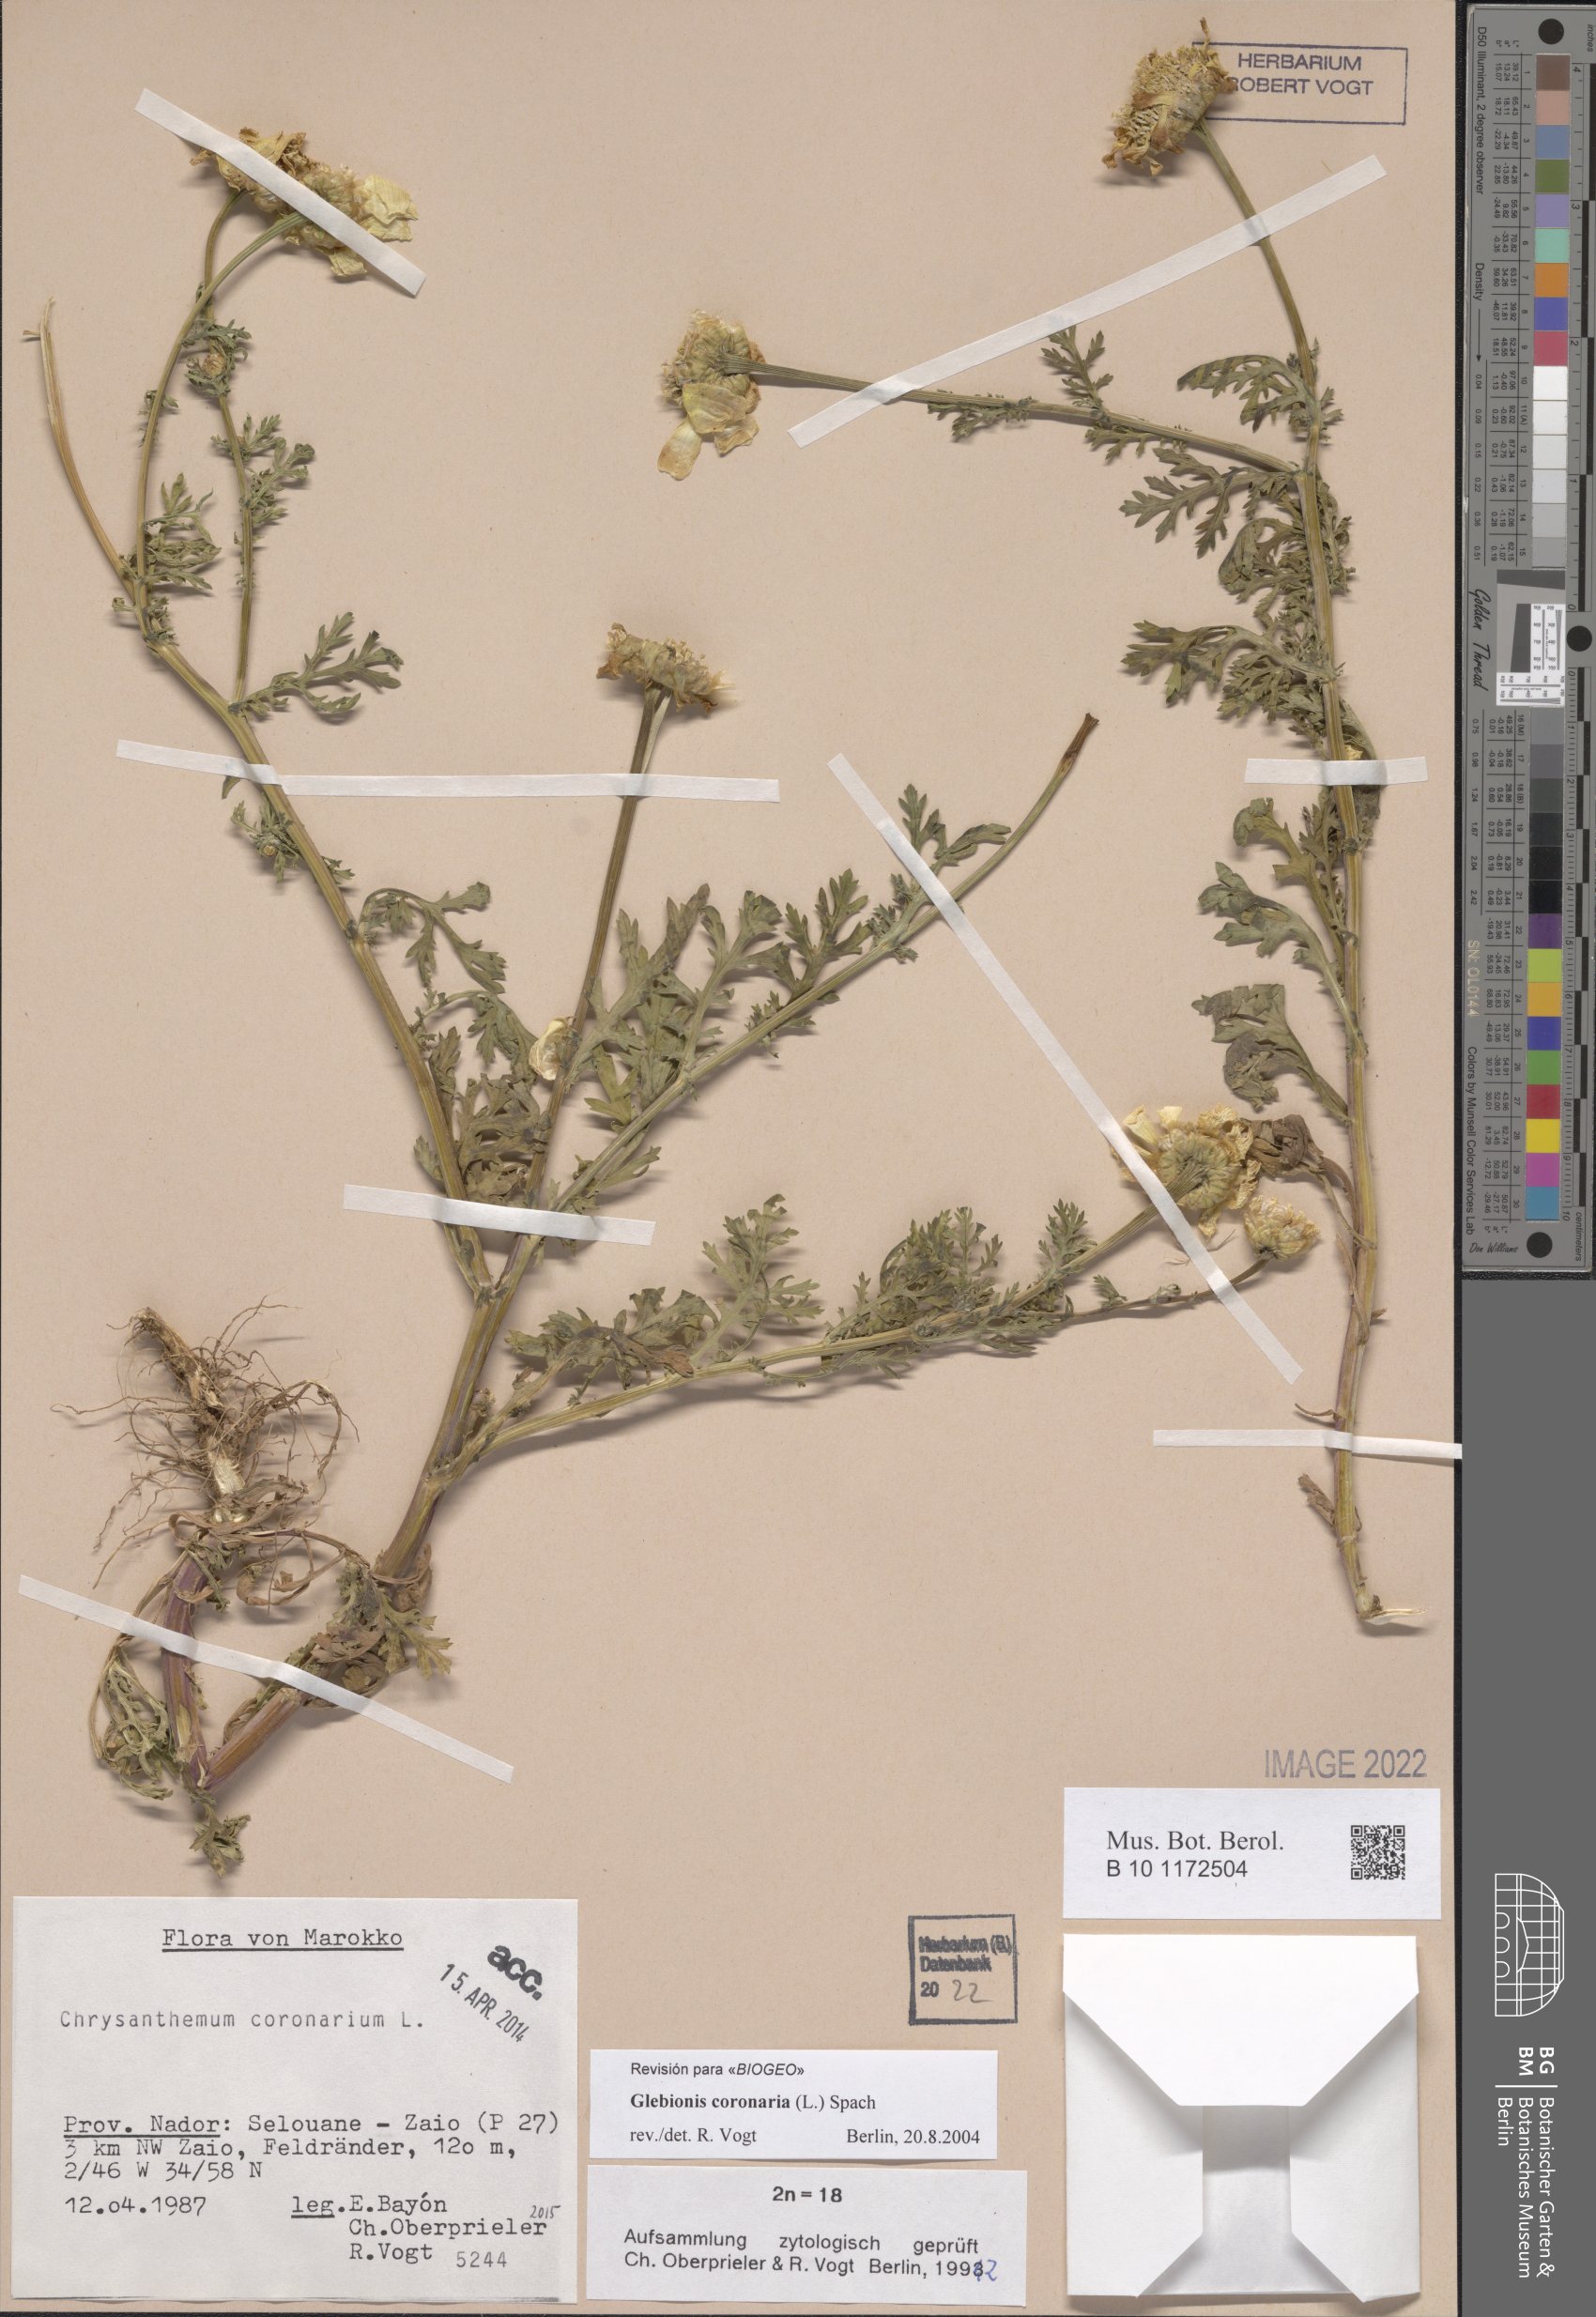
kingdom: Plantae
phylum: Tracheophyta
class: Magnoliopsida
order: Asterales
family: Asteraceae
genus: Glebionis
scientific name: Glebionis coronaria
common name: Crowndaisy
